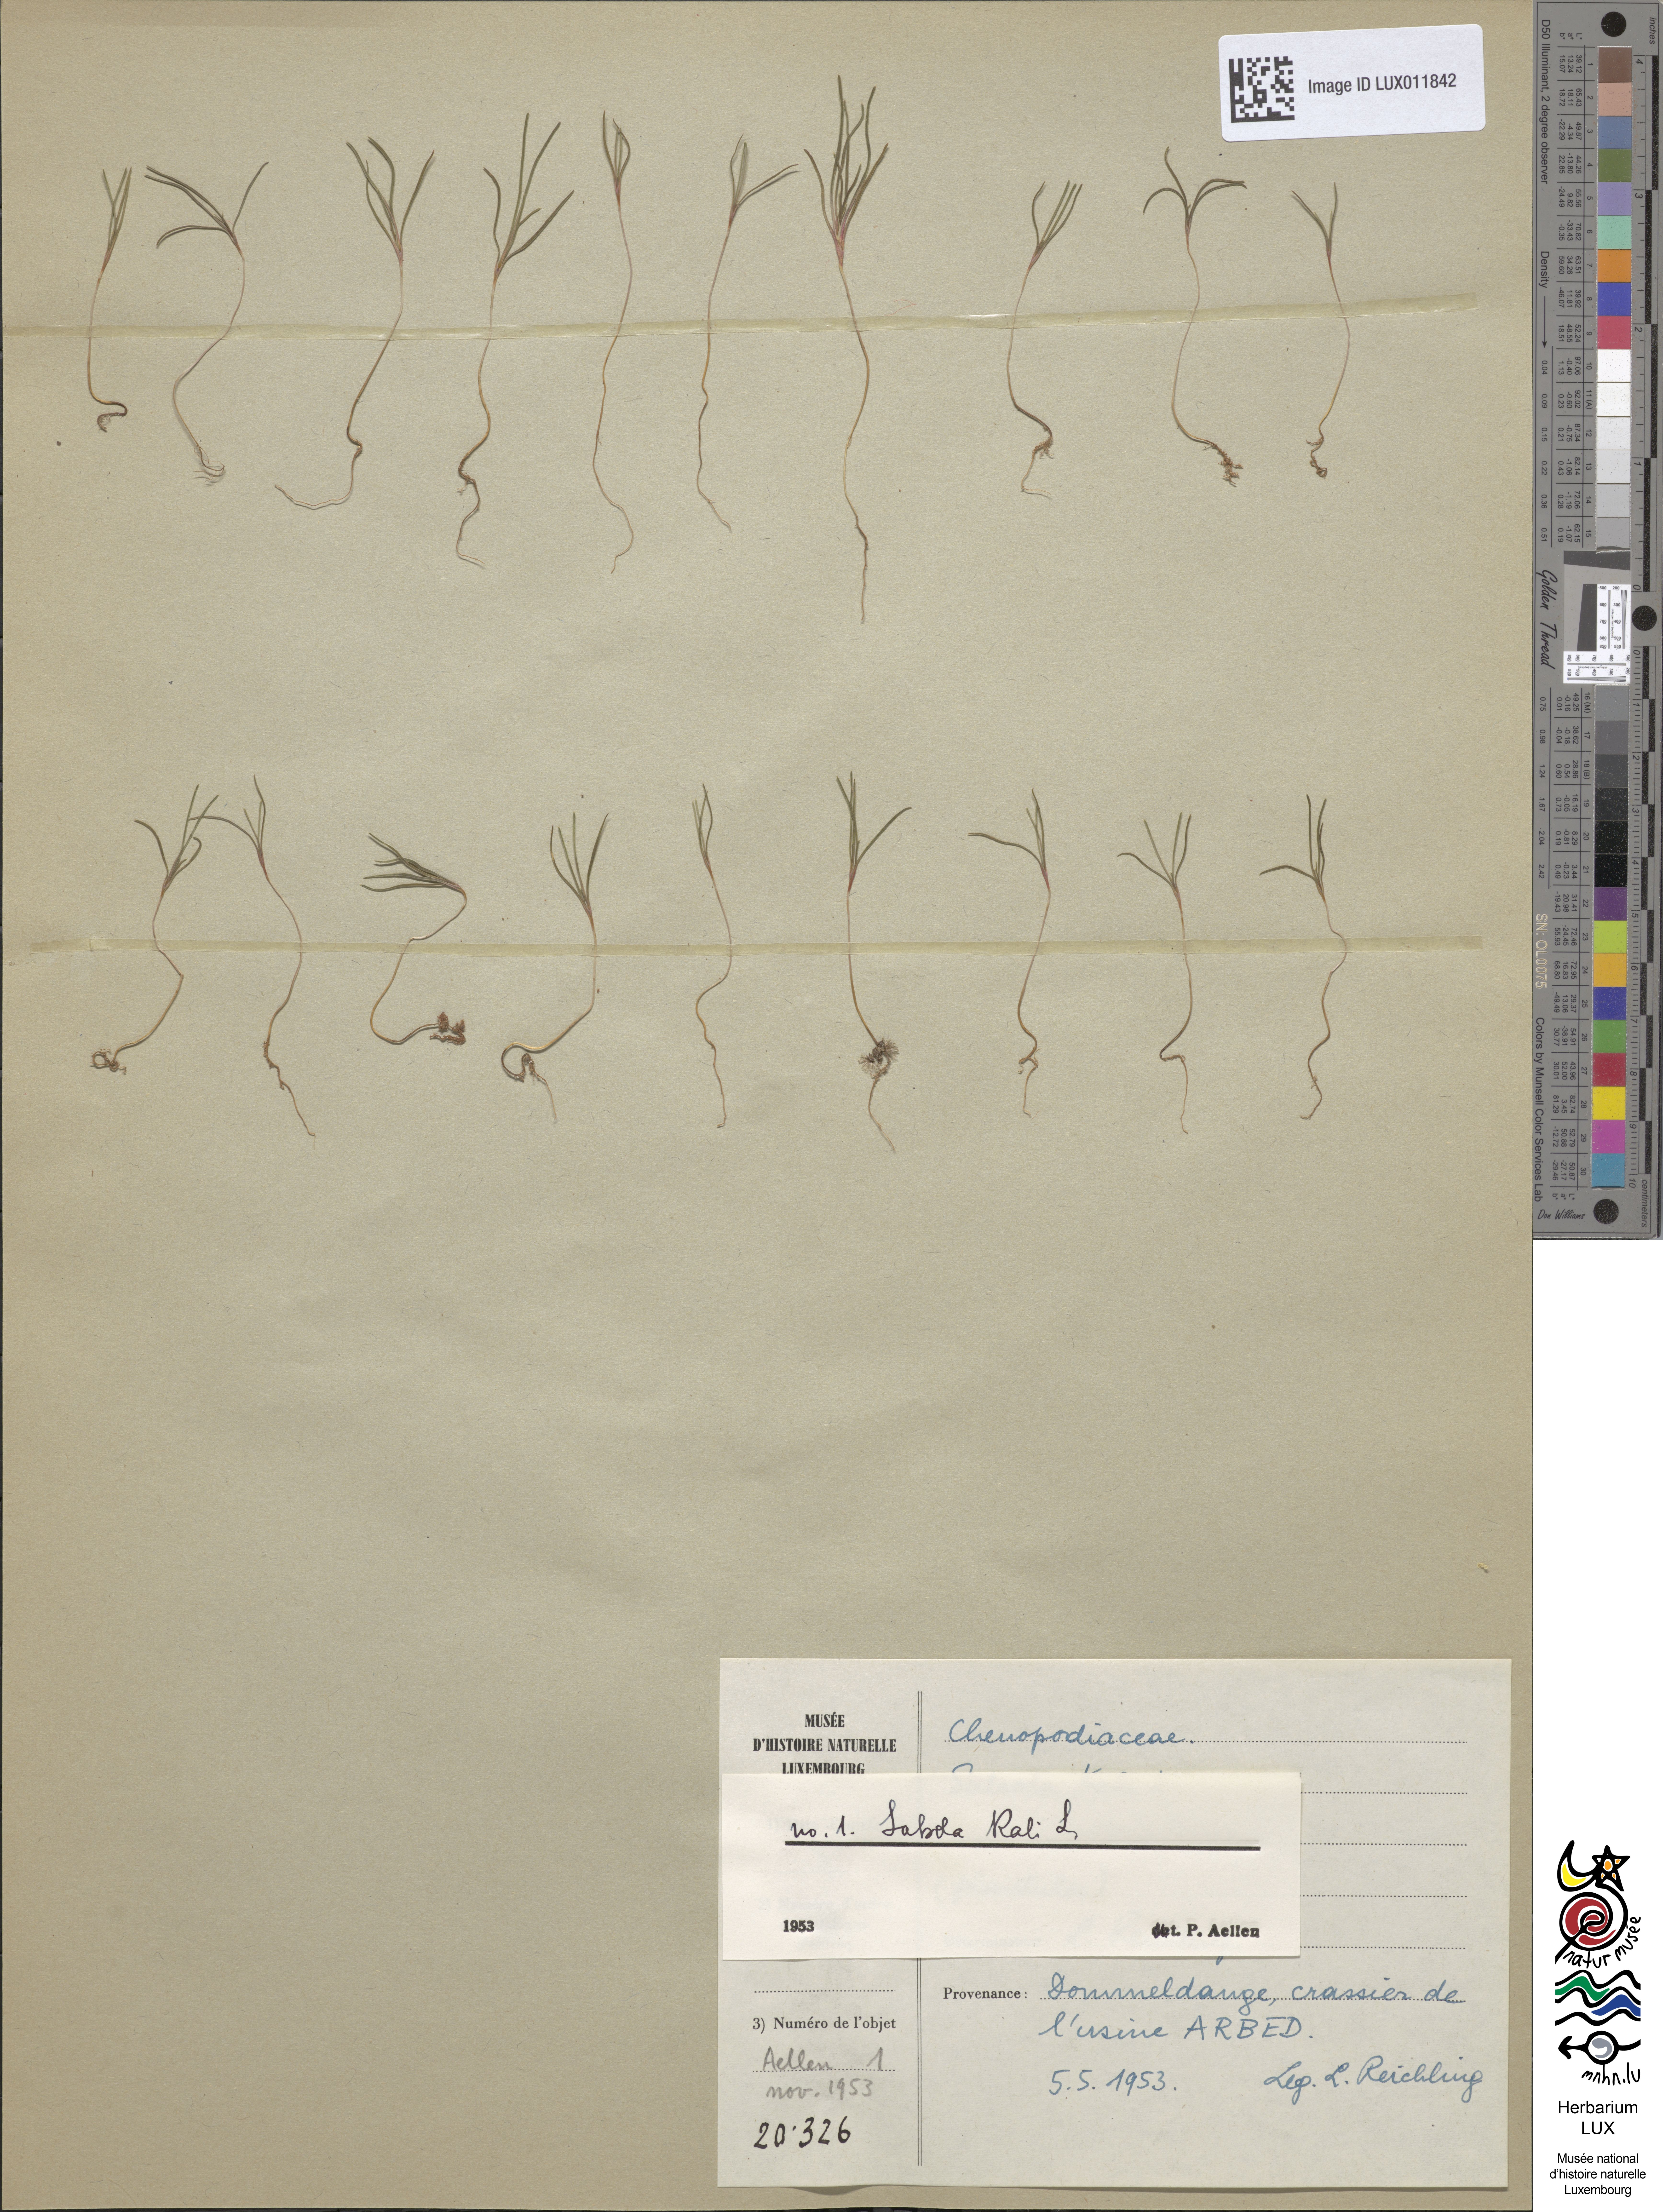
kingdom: Plantae
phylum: Tracheophyta
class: Magnoliopsida
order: Caryophyllales
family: Amaranthaceae
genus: Salsola
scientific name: Salsola kali
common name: Saltwort
